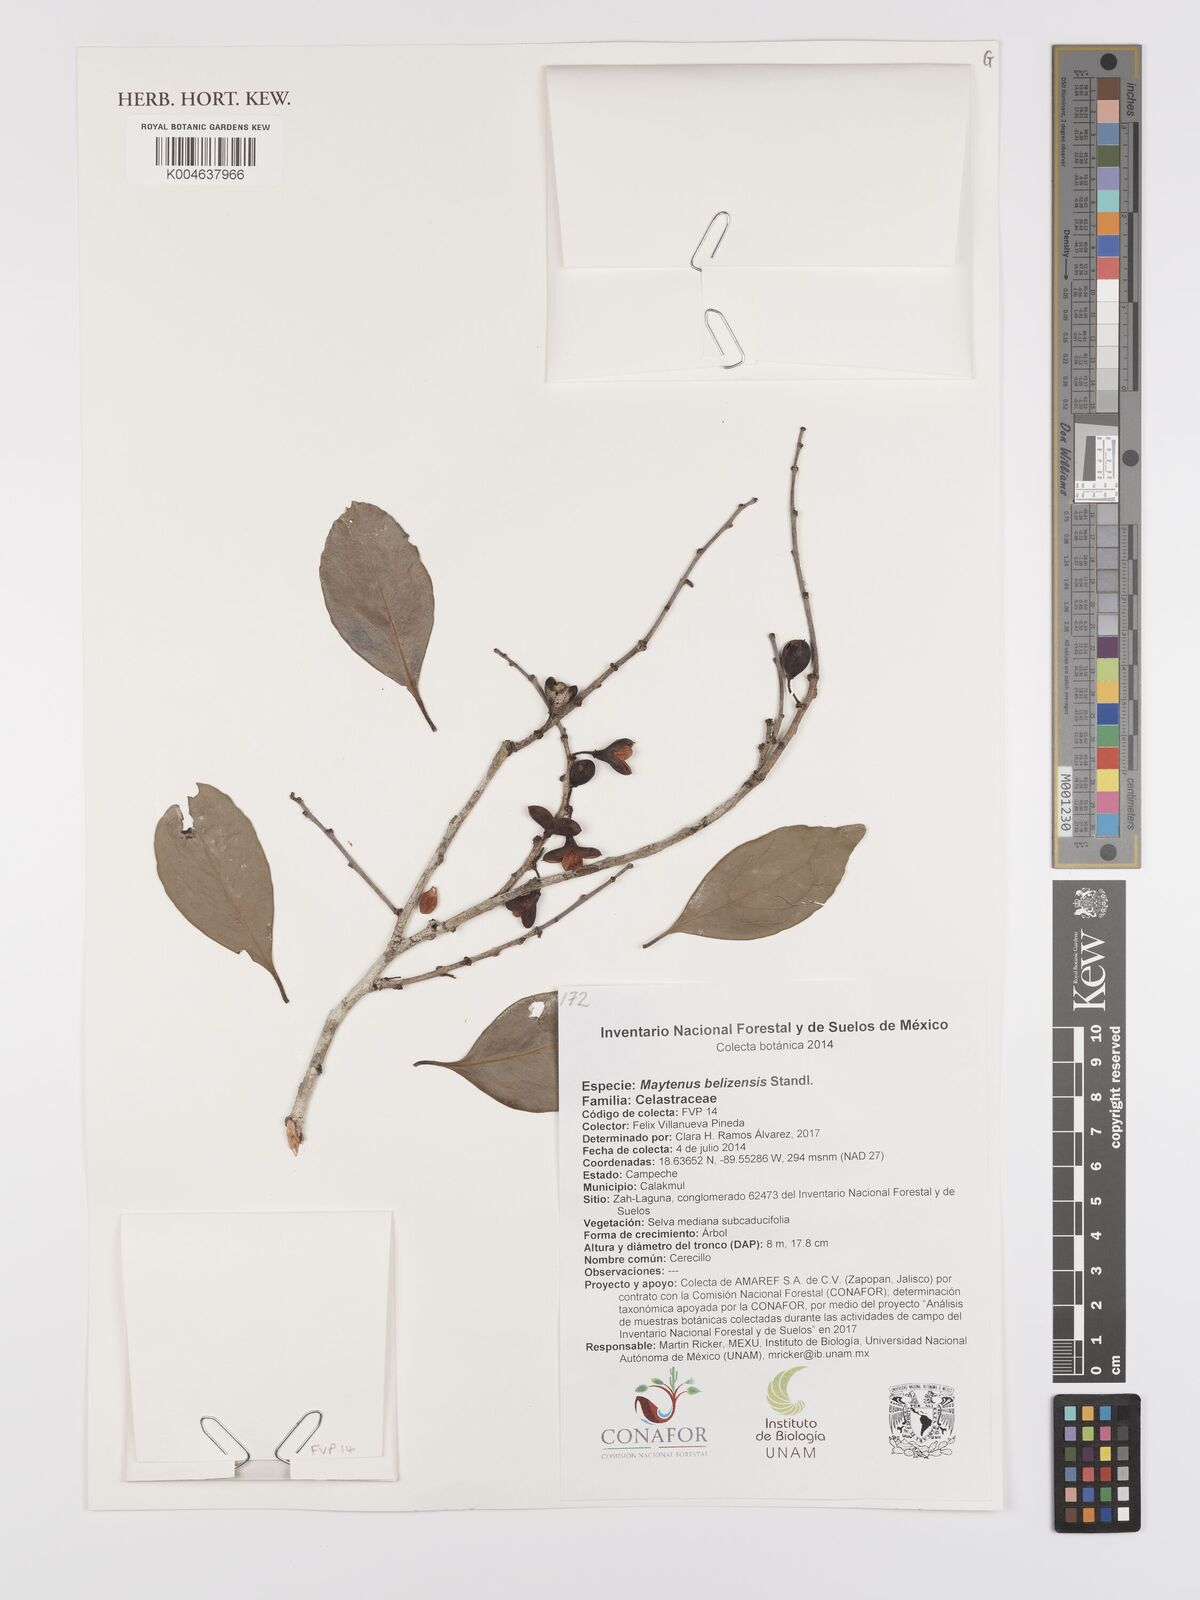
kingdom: Plantae
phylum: Tracheophyta
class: Magnoliopsida
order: Celastrales
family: Celastraceae
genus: Monteverdia
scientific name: Monteverdia belizensis
